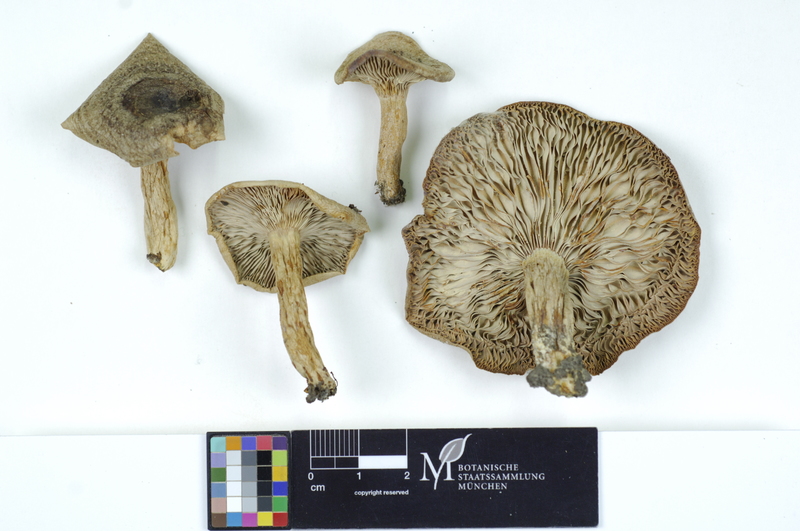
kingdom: Fungi
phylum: Basidiomycota
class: Agaricomycetes
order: Russulales
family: Russulaceae
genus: Lactarius
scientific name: Lactarius circellatus
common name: Circled milkcap
